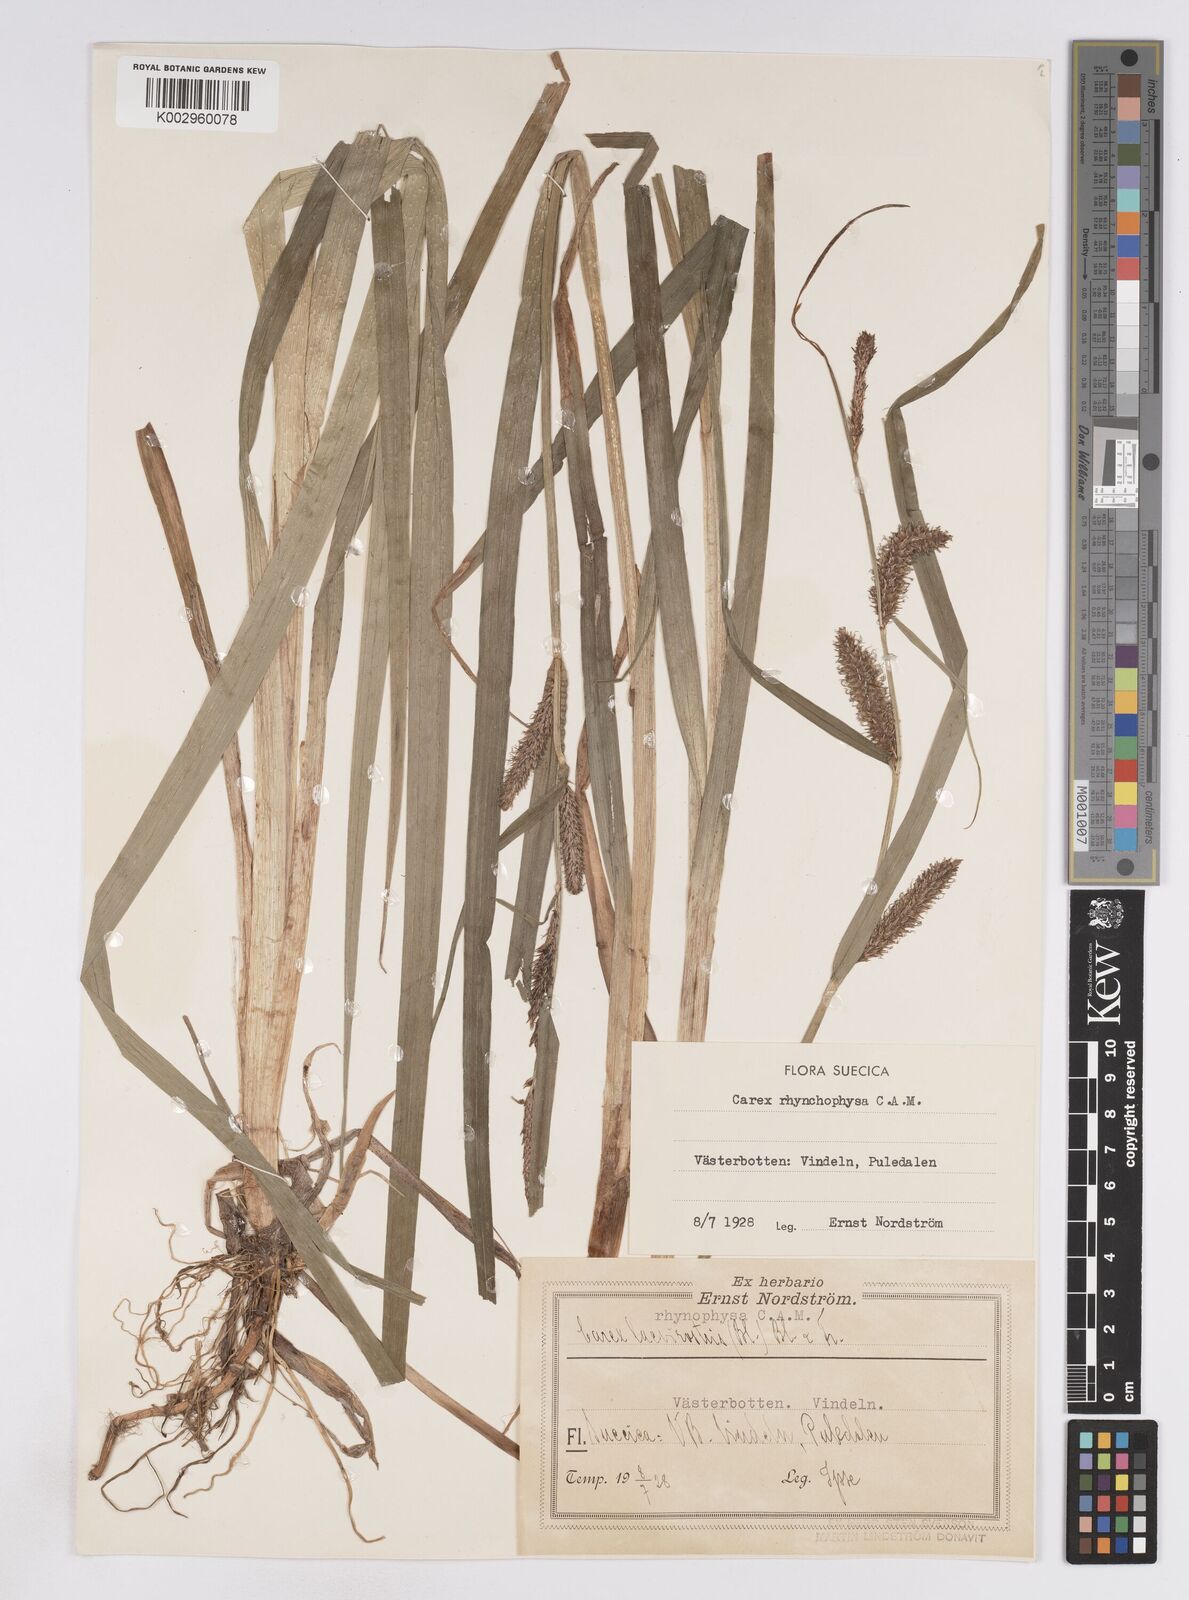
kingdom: Plantae
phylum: Tracheophyta
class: Liliopsida
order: Poales
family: Cyperaceae
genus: Carex
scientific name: Carex utriculata
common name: Beaked sedge
